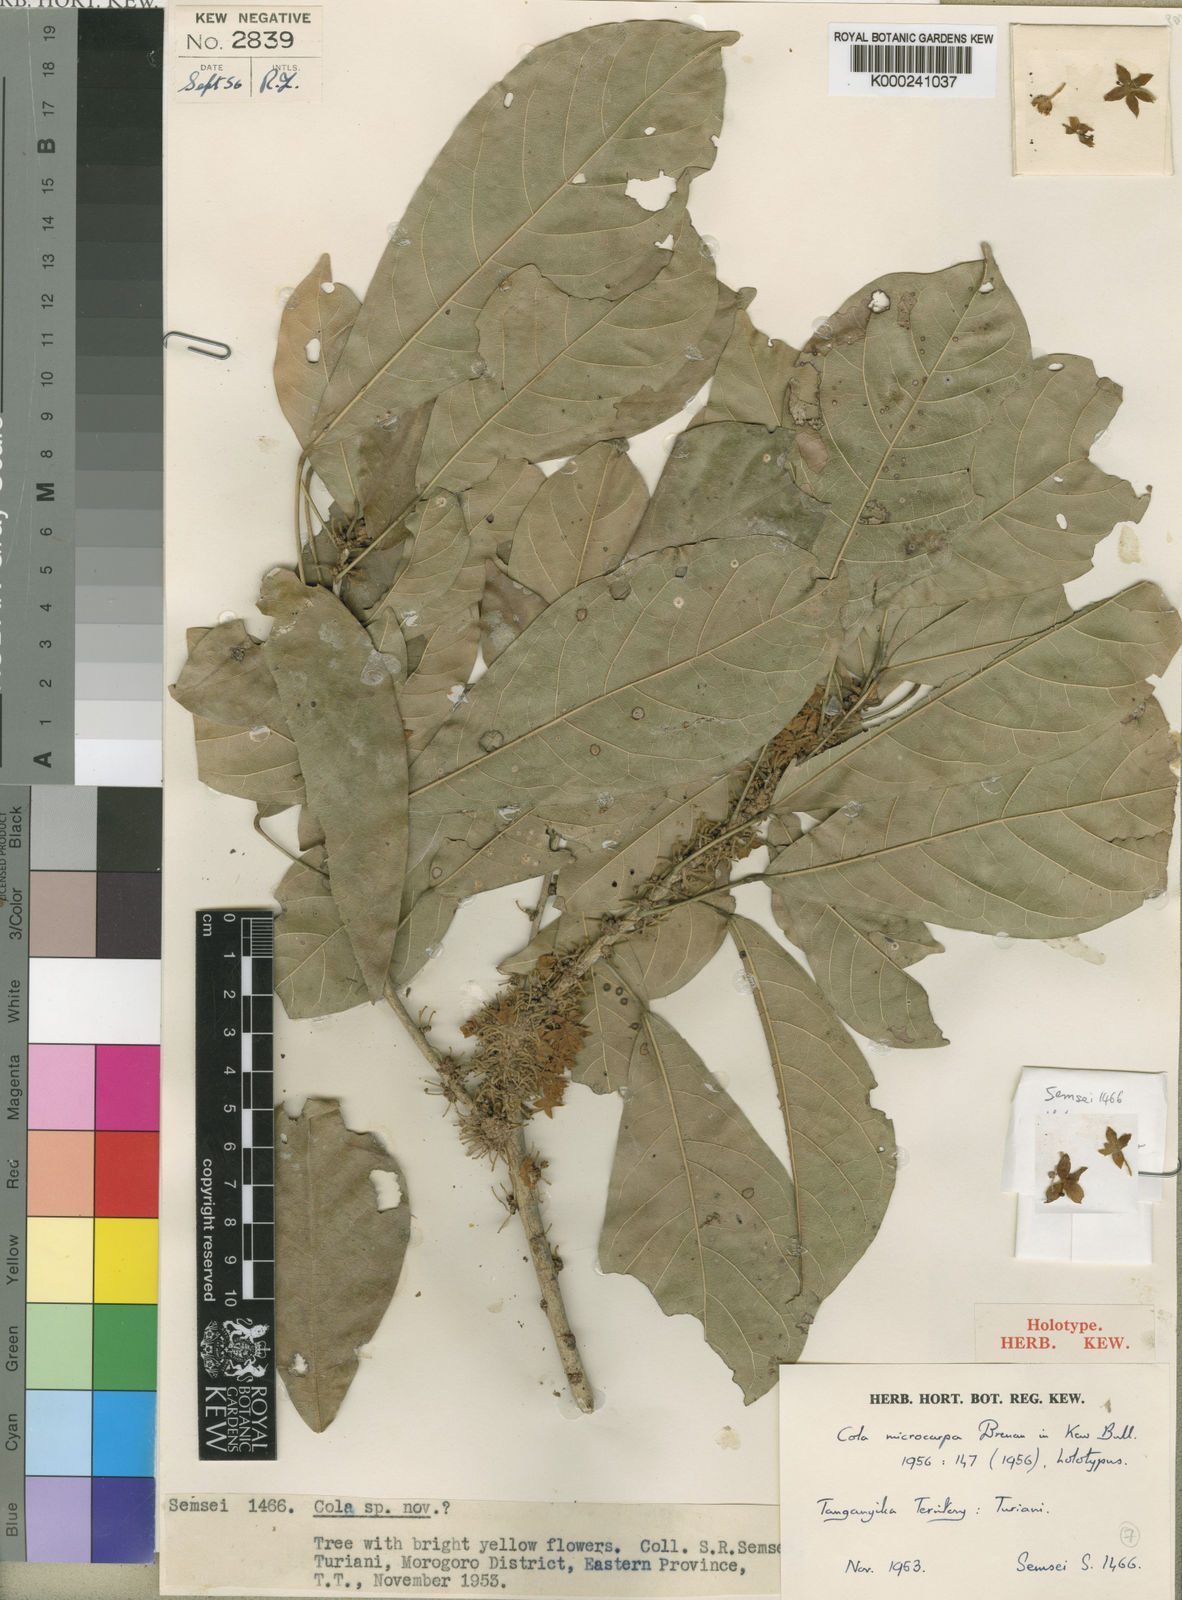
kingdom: Plantae
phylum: Tracheophyta
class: Magnoliopsida
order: Malvales
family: Malvaceae
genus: Cola
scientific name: Cola greenwayi
